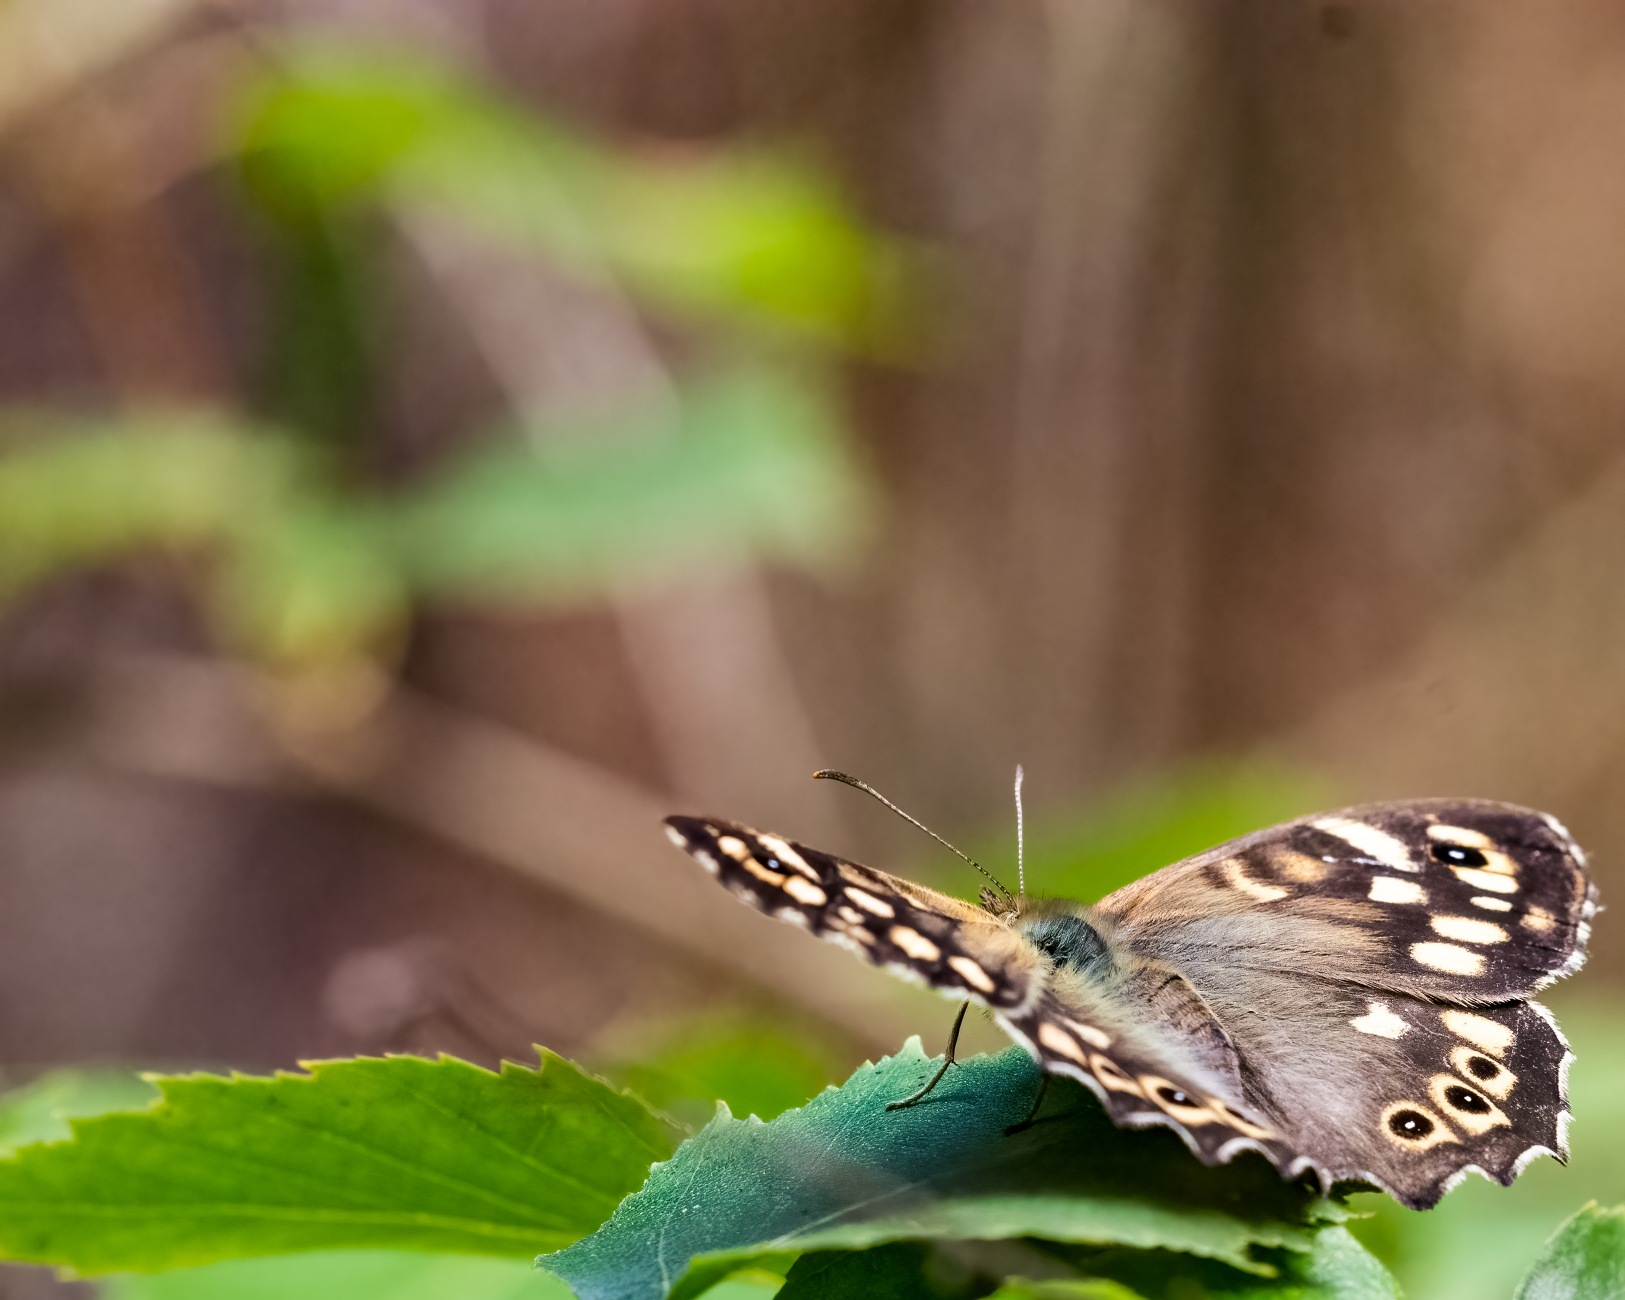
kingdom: Animalia
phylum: Arthropoda
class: Insecta
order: Lepidoptera
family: Nymphalidae
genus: Pararge
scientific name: Pararge aegeria
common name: Skovrandøje
